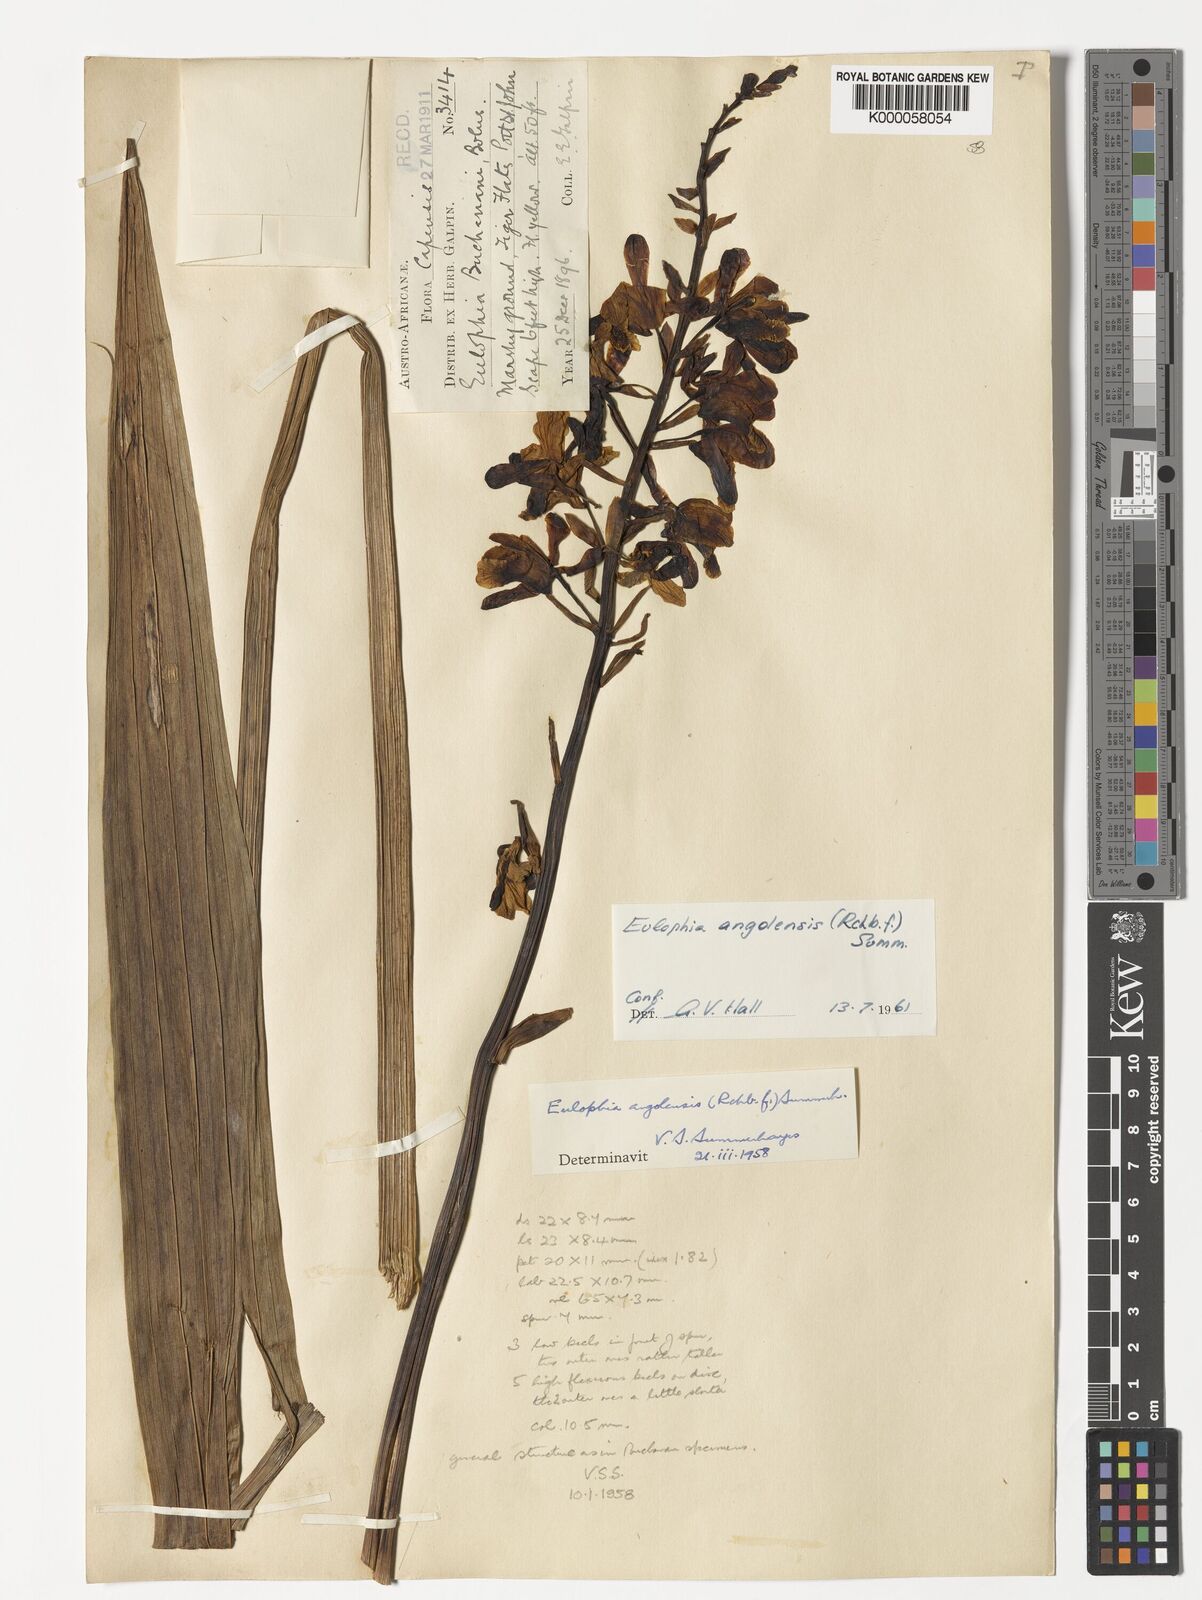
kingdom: Plantae
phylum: Tracheophyta
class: Liliopsida
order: Asparagales
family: Orchidaceae
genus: Eulophia
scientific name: Eulophia angolensis
